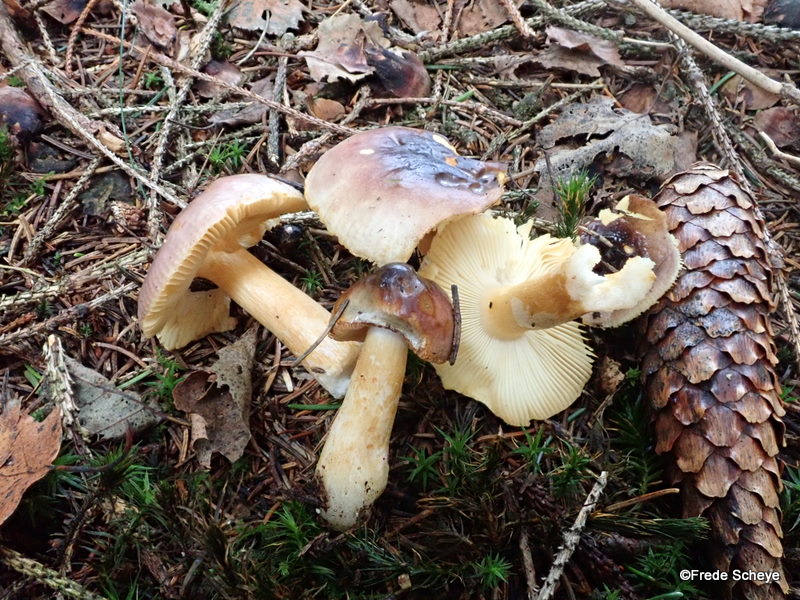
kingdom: Fungi
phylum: Basidiomycota
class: Agaricomycetes
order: Russulales
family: Russulaceae
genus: Russula
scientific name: Russula puellaris
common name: gulstokket skørhat
